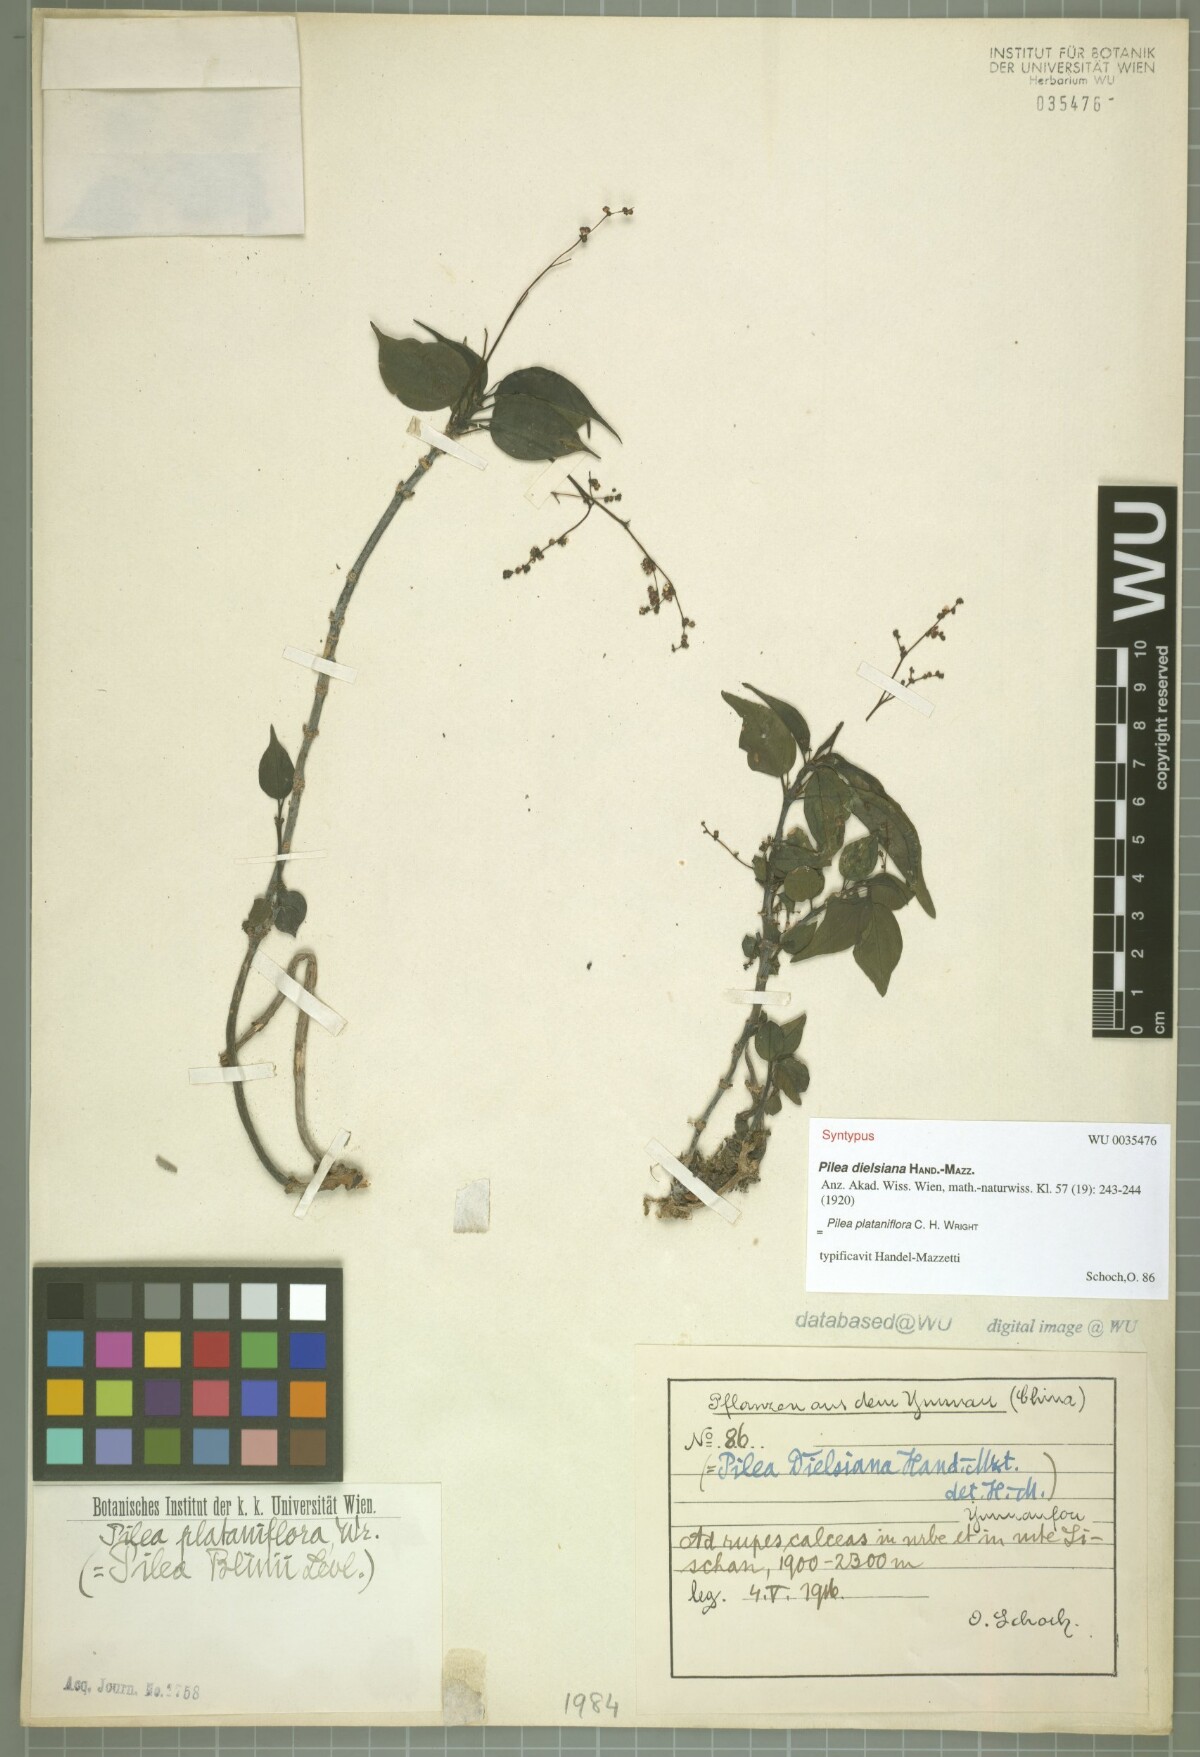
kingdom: Plantae
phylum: Tracheophyta
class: Magnoliopsida
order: Rosales
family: Urticaceae
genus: Pilea
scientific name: Pilea plataniflora
